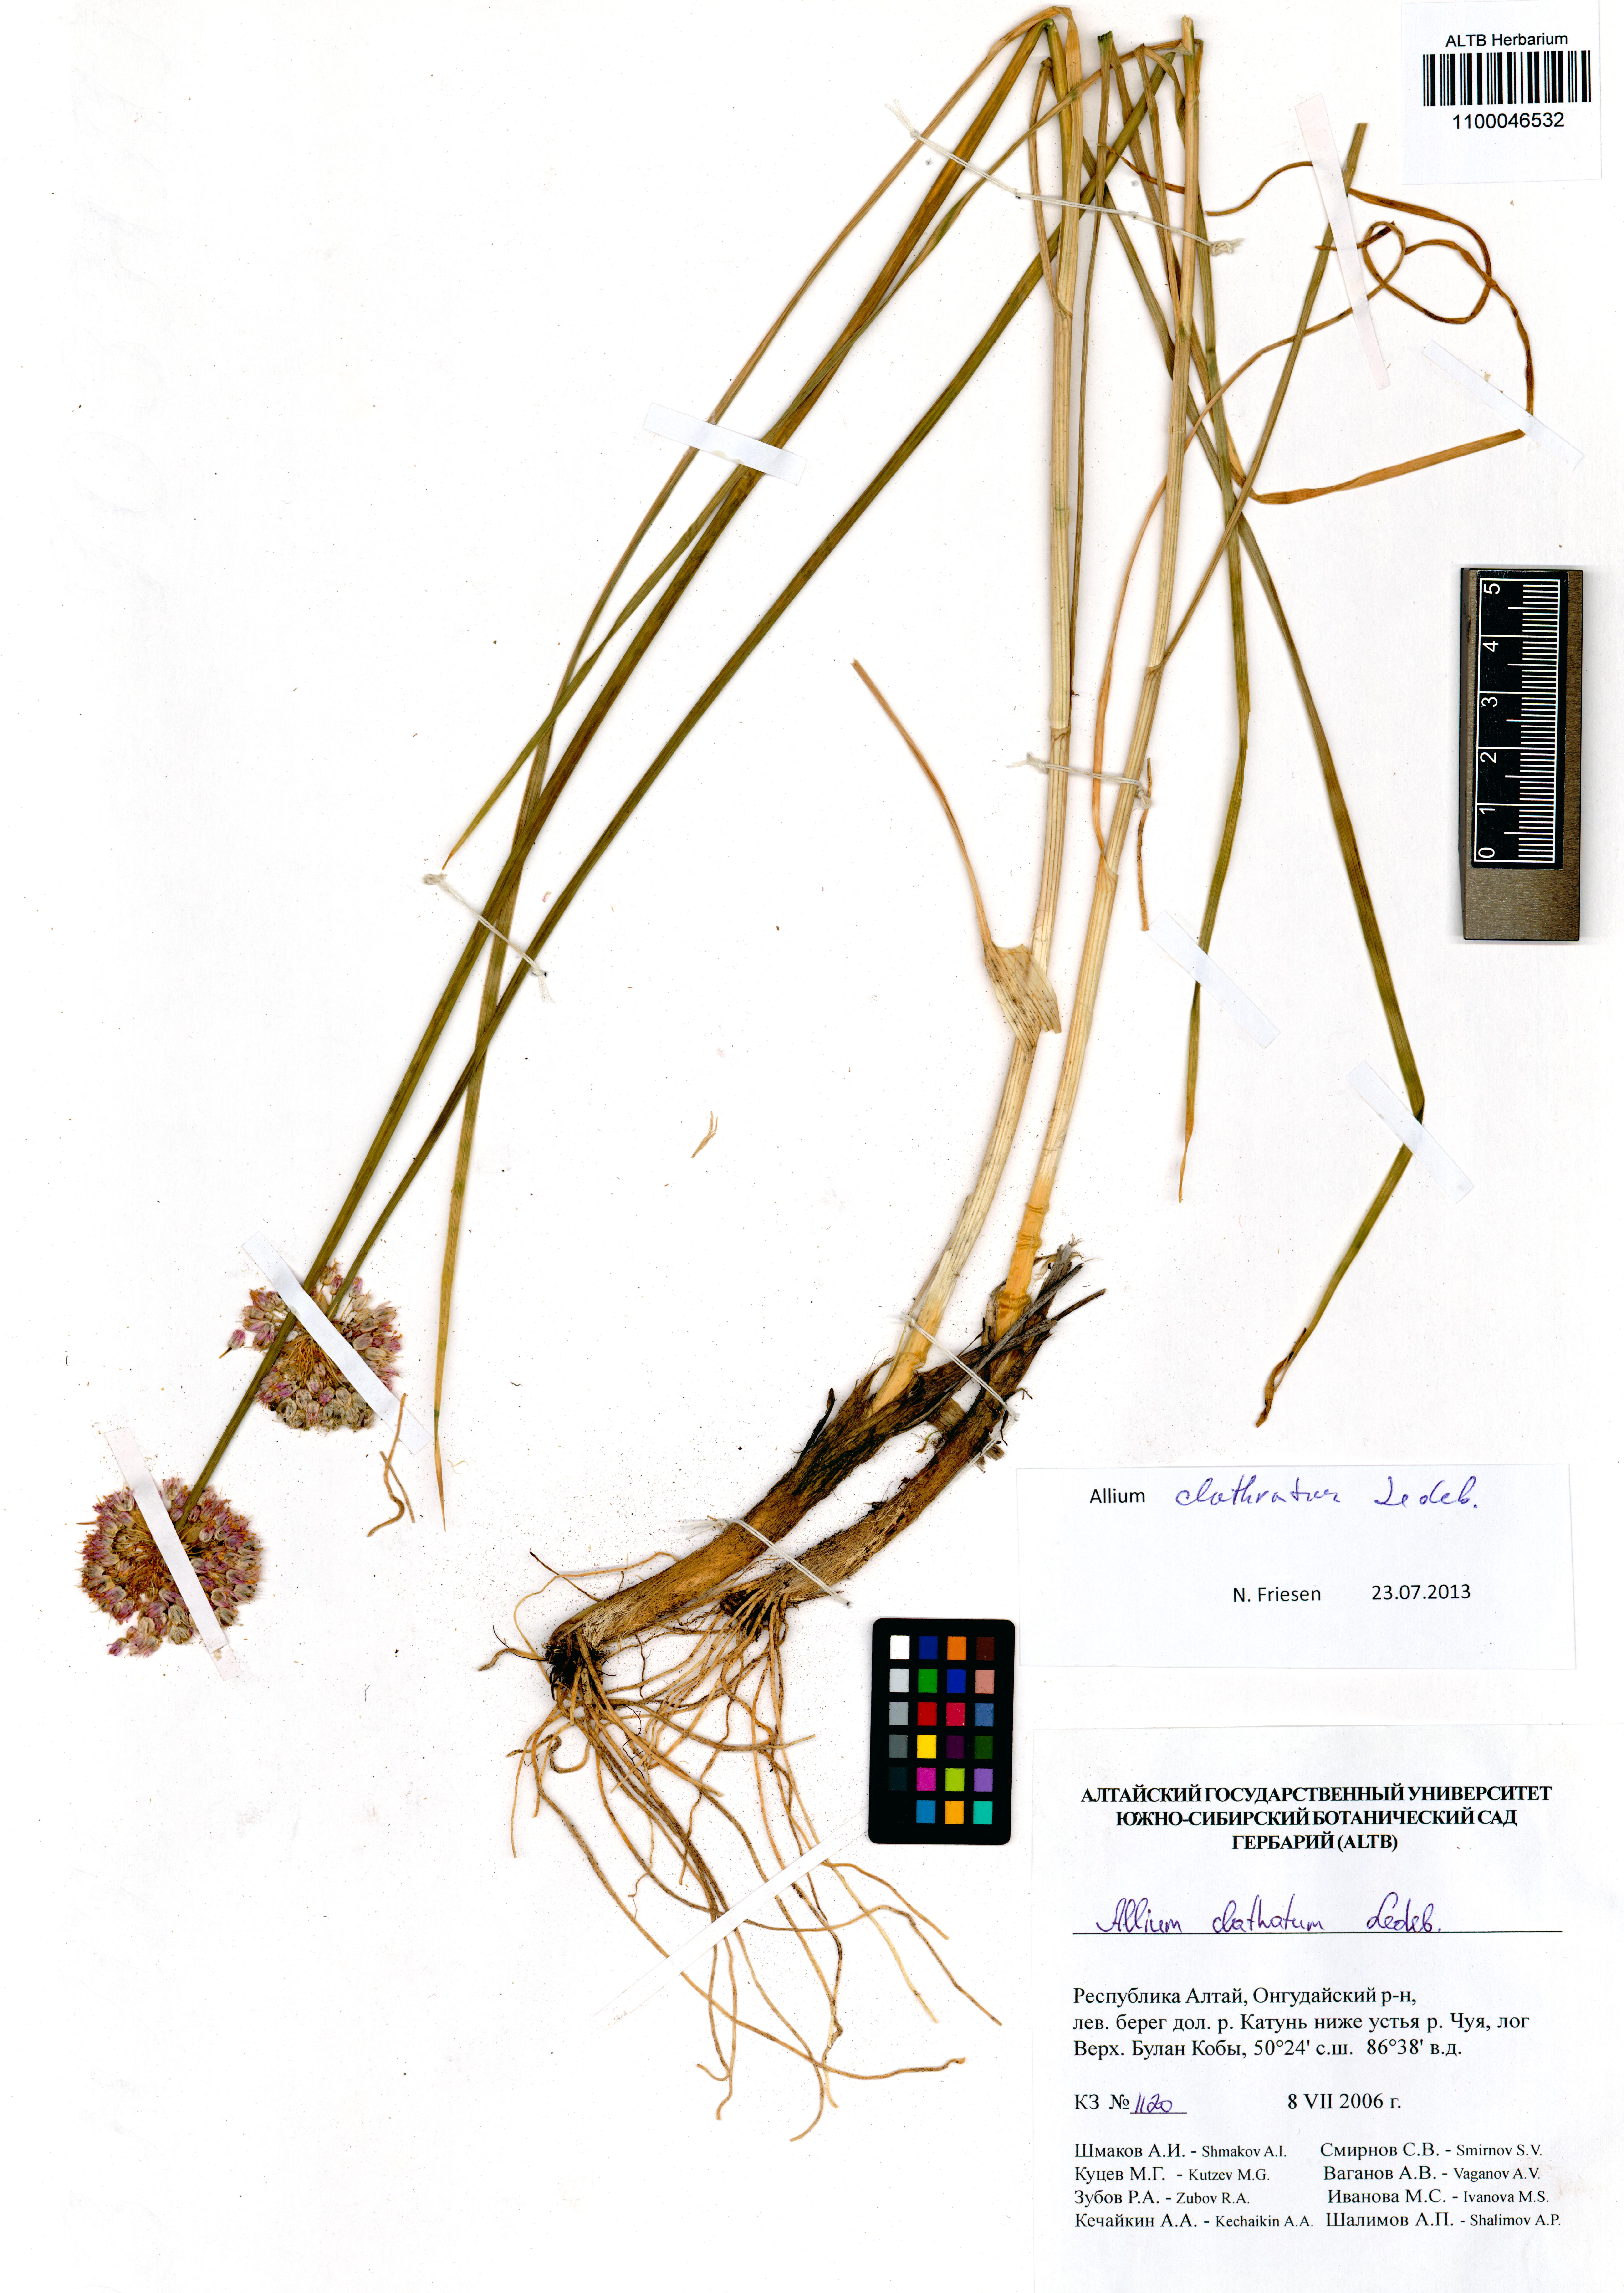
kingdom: Plantae
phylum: Tracheophyta
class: Liliopsida
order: Asparagales
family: Amaryllidaceae
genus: Allium
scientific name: Allium clathratum
